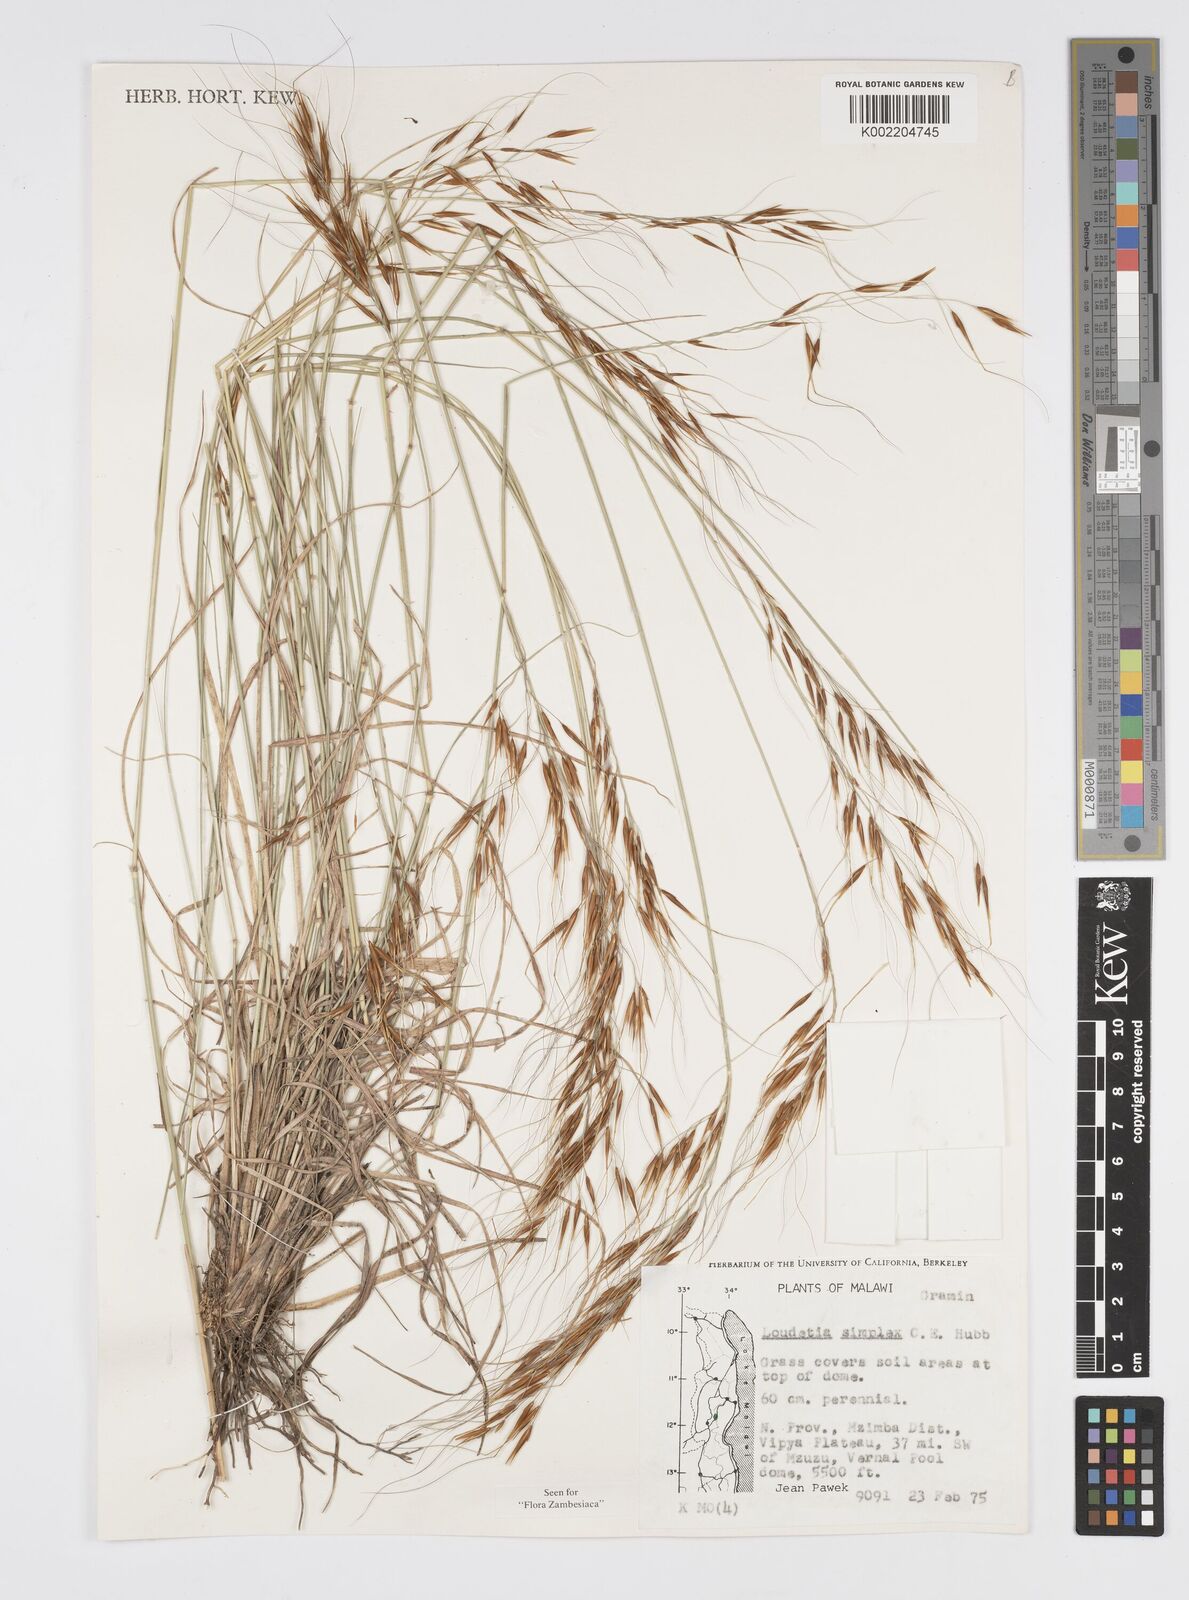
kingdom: Plantae
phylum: Tracheophyta
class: Liliopsida
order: Poales
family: Poaceae
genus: Loudetia
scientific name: Loudetia simplex
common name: Common russet grass
